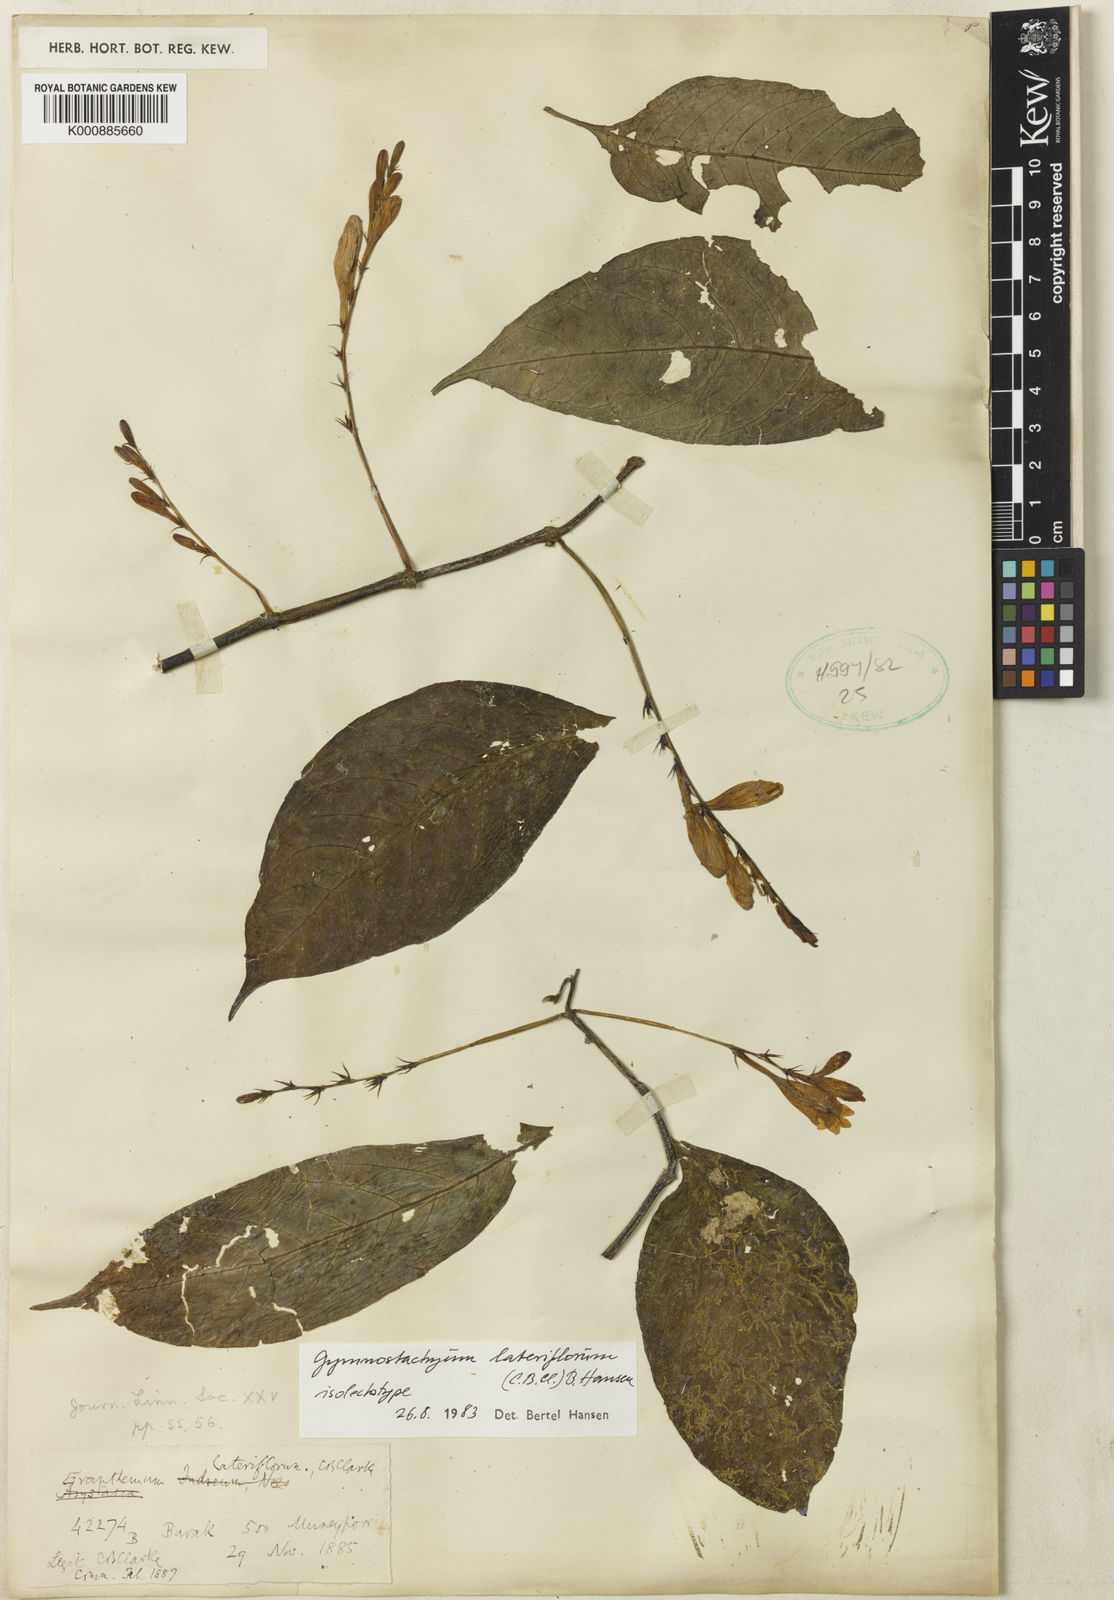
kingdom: Plantae
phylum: Tracheophyta
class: Magnoliopsida
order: Lamiales
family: Acanthaceae
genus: Gymnostachyum
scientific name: Gymnostachyum lateriflorum
